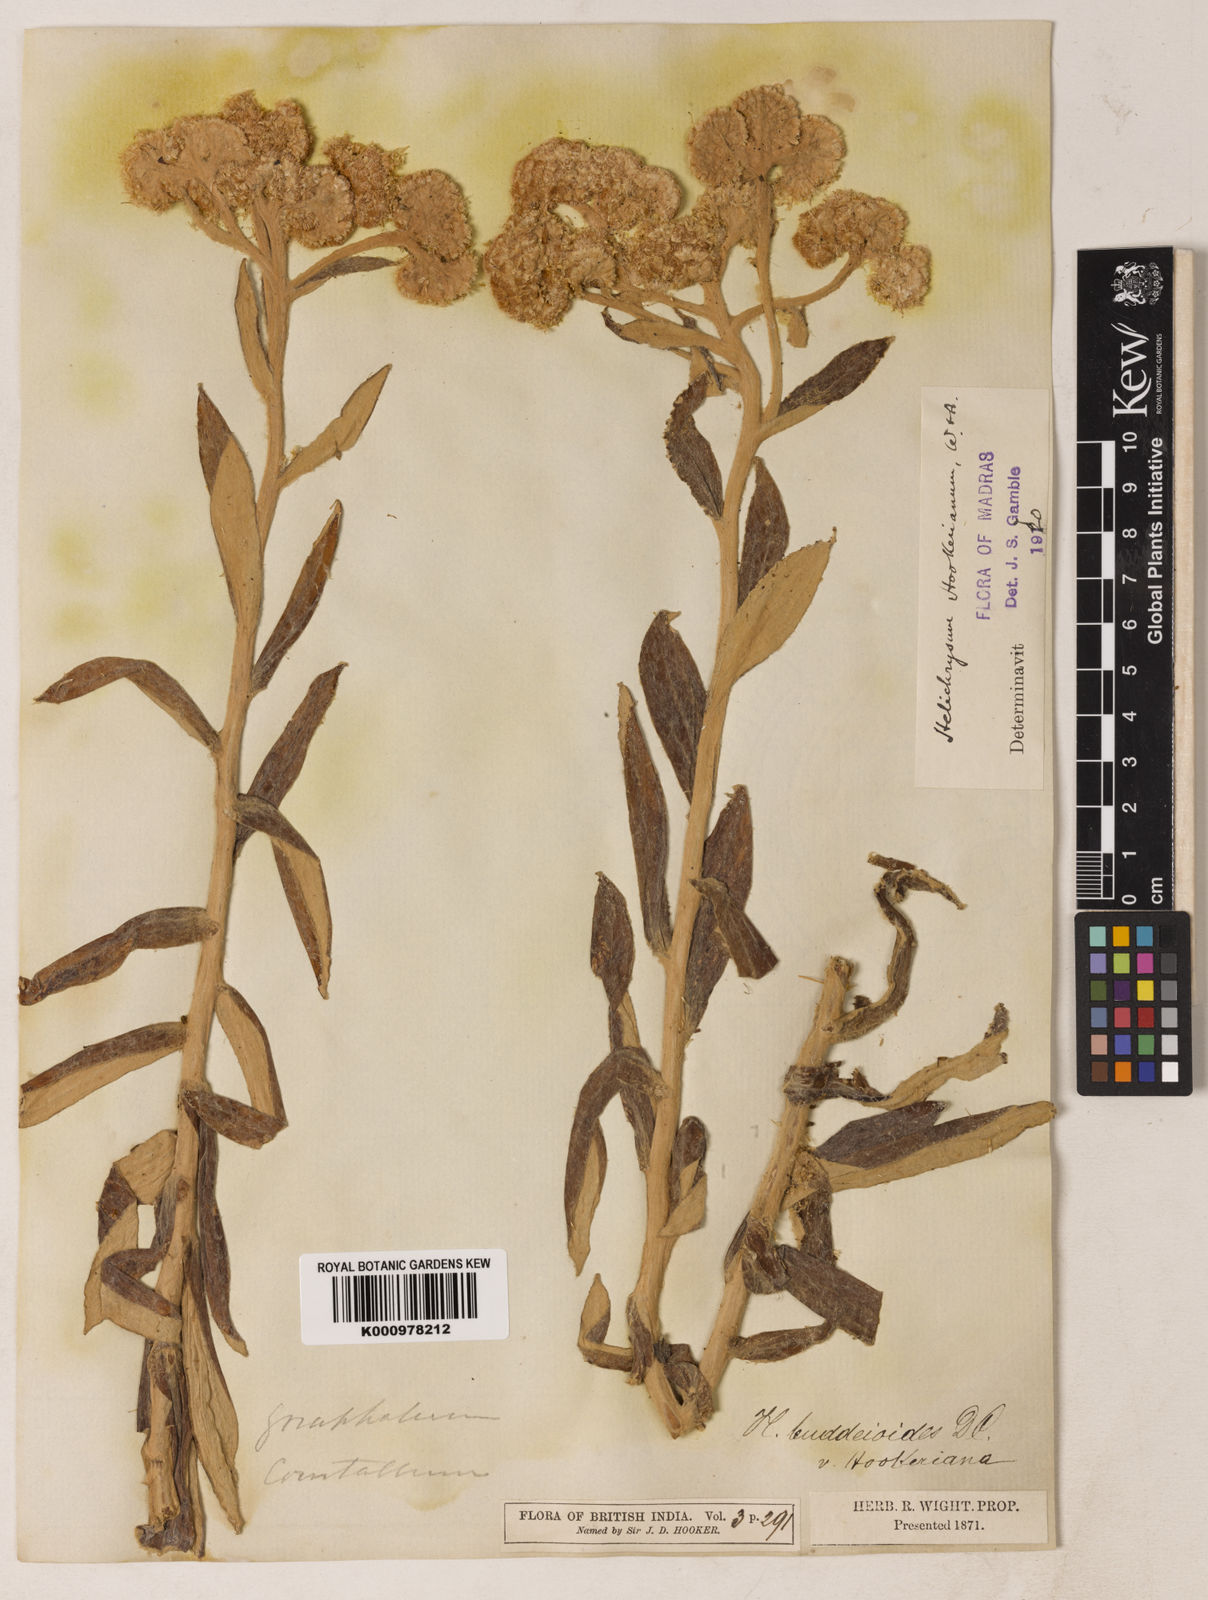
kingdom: Plantae
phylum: Tracheophyta
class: Magnoliopsida
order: Asterales
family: Asteraceae
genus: Helichrysum
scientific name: Helichrysum
